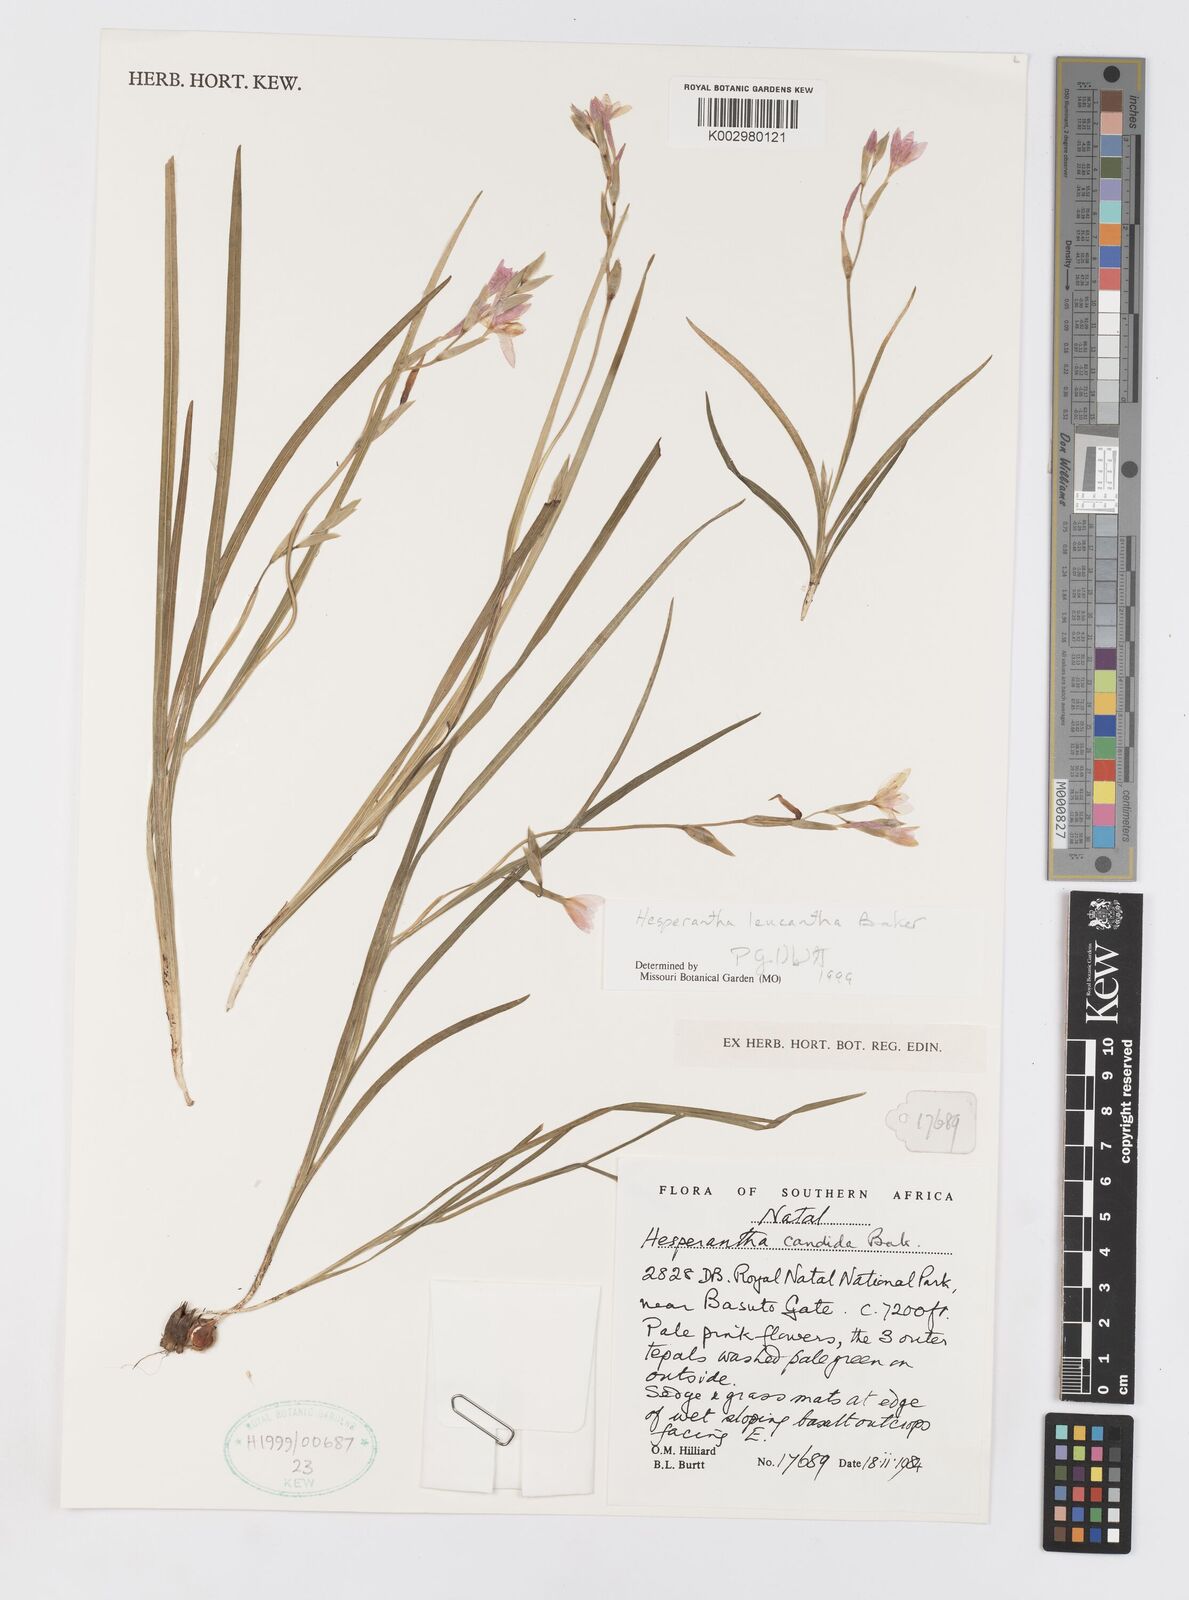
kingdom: Plantae
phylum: Tracheophyta
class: Liliopsida
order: Asparagales
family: Iridaceae
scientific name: Iridaceae
